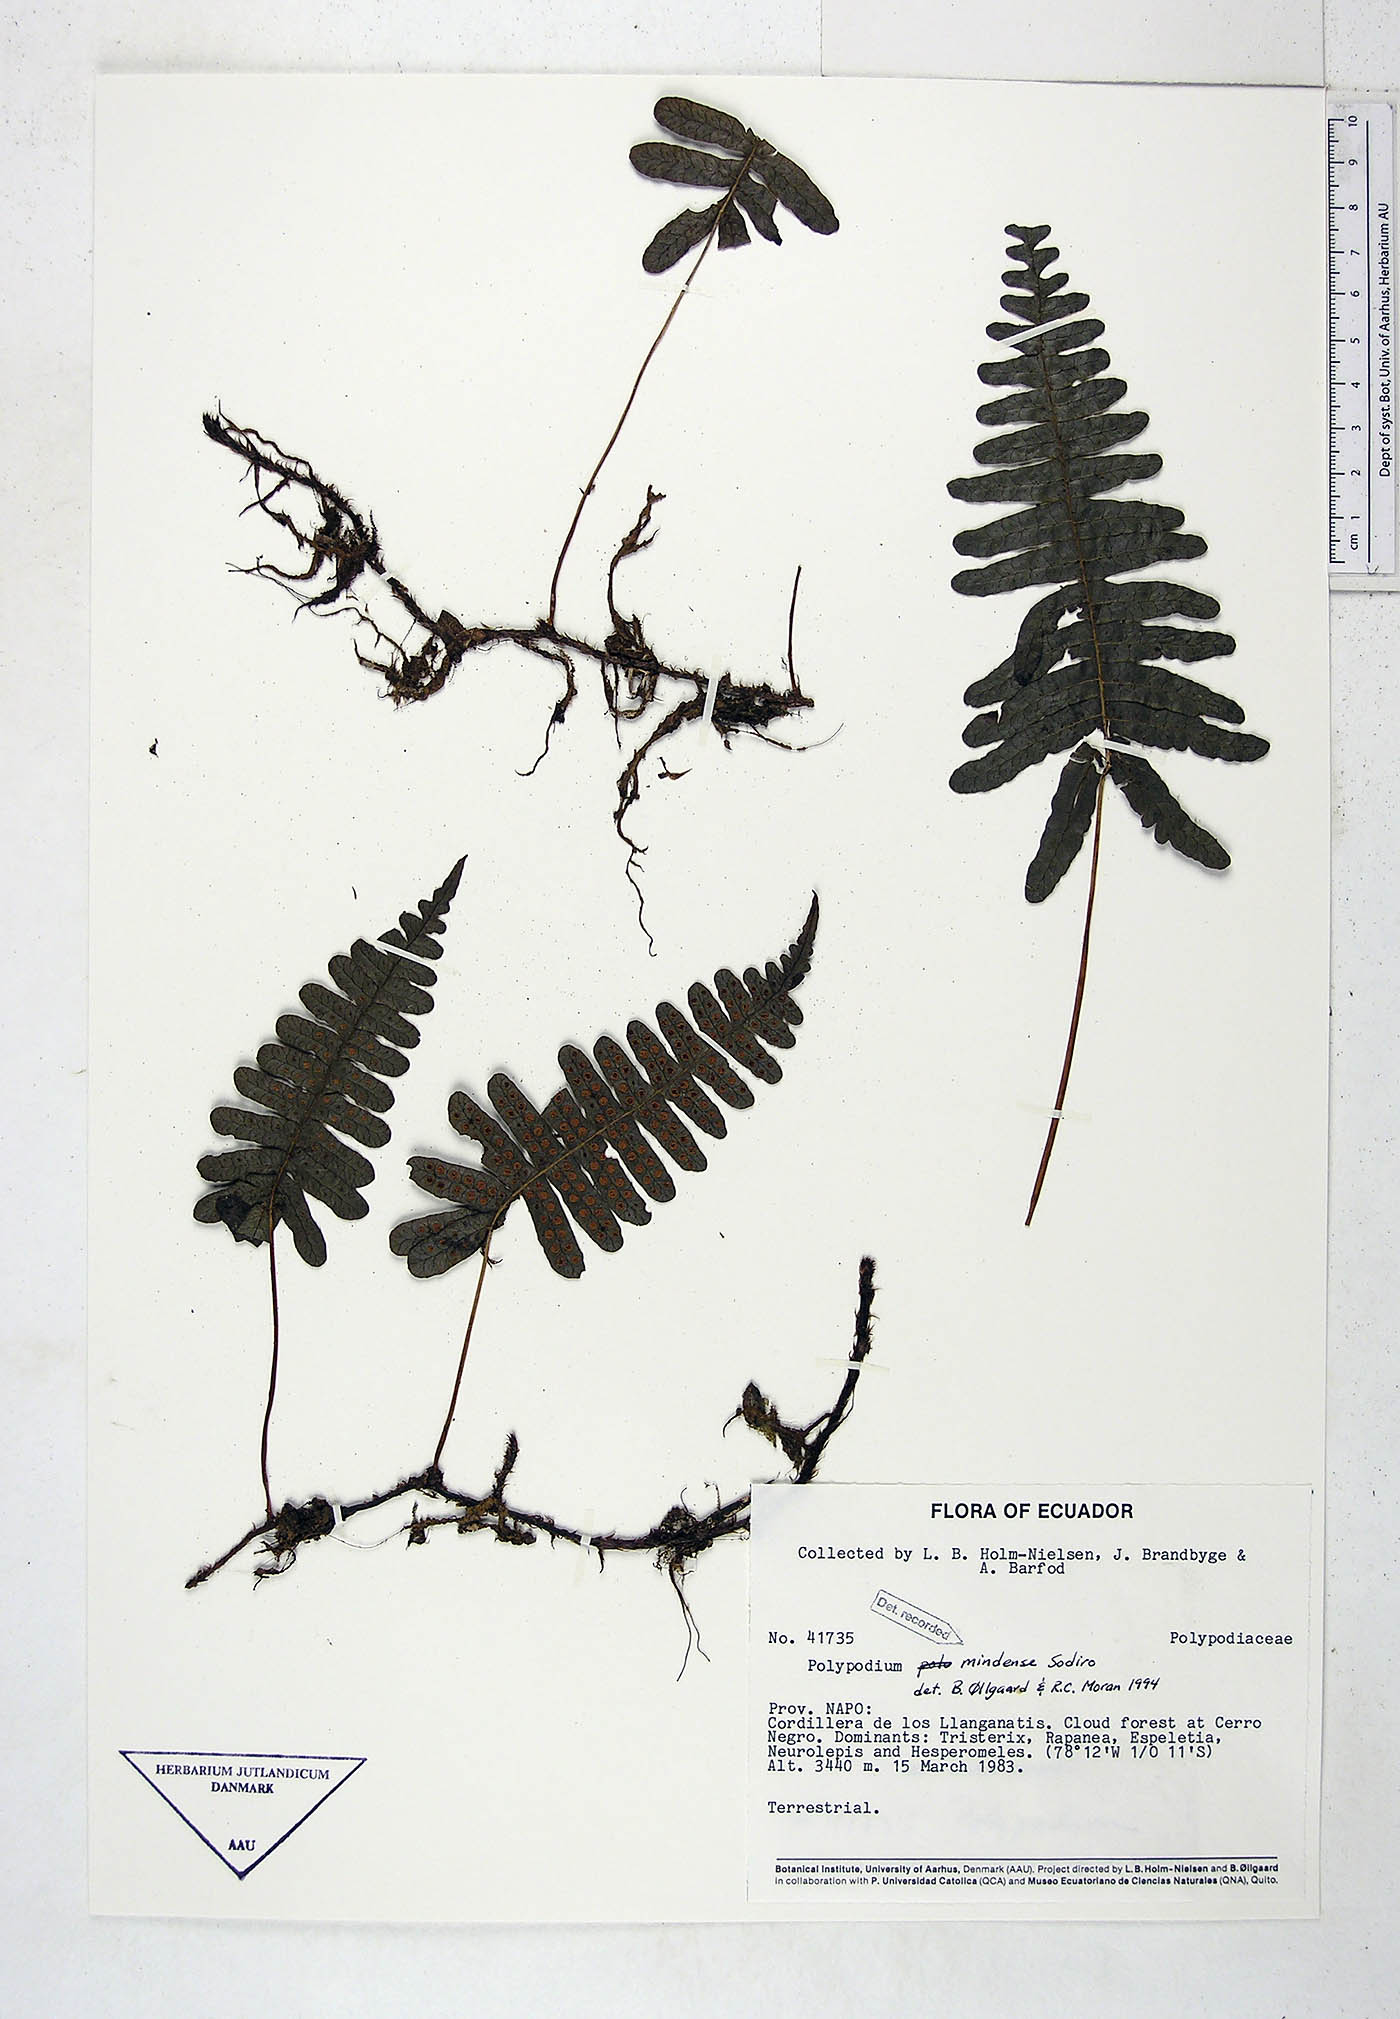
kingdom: Plantae
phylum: Tracheophyta
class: Polypodiopsida
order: Polypodiales
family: Polypodiaceae
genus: Serpocaulon
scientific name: Serpocaulon eleutherophlebium
